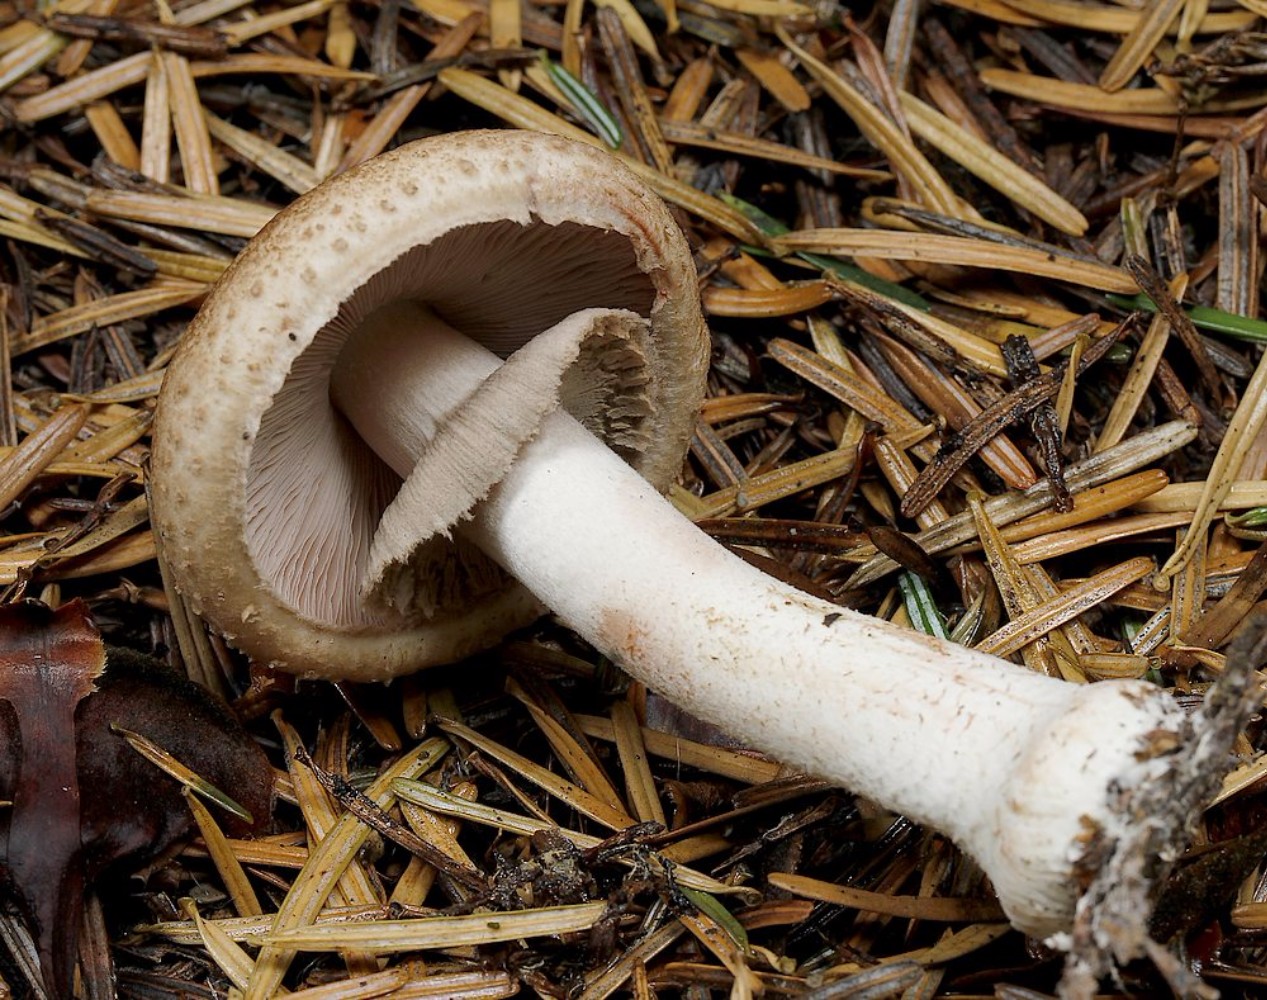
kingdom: Fungi
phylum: Basidiomycota
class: Agaricomycetes
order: Agaricales
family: Agaricaceae
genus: Agaricus
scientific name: Agaricus
